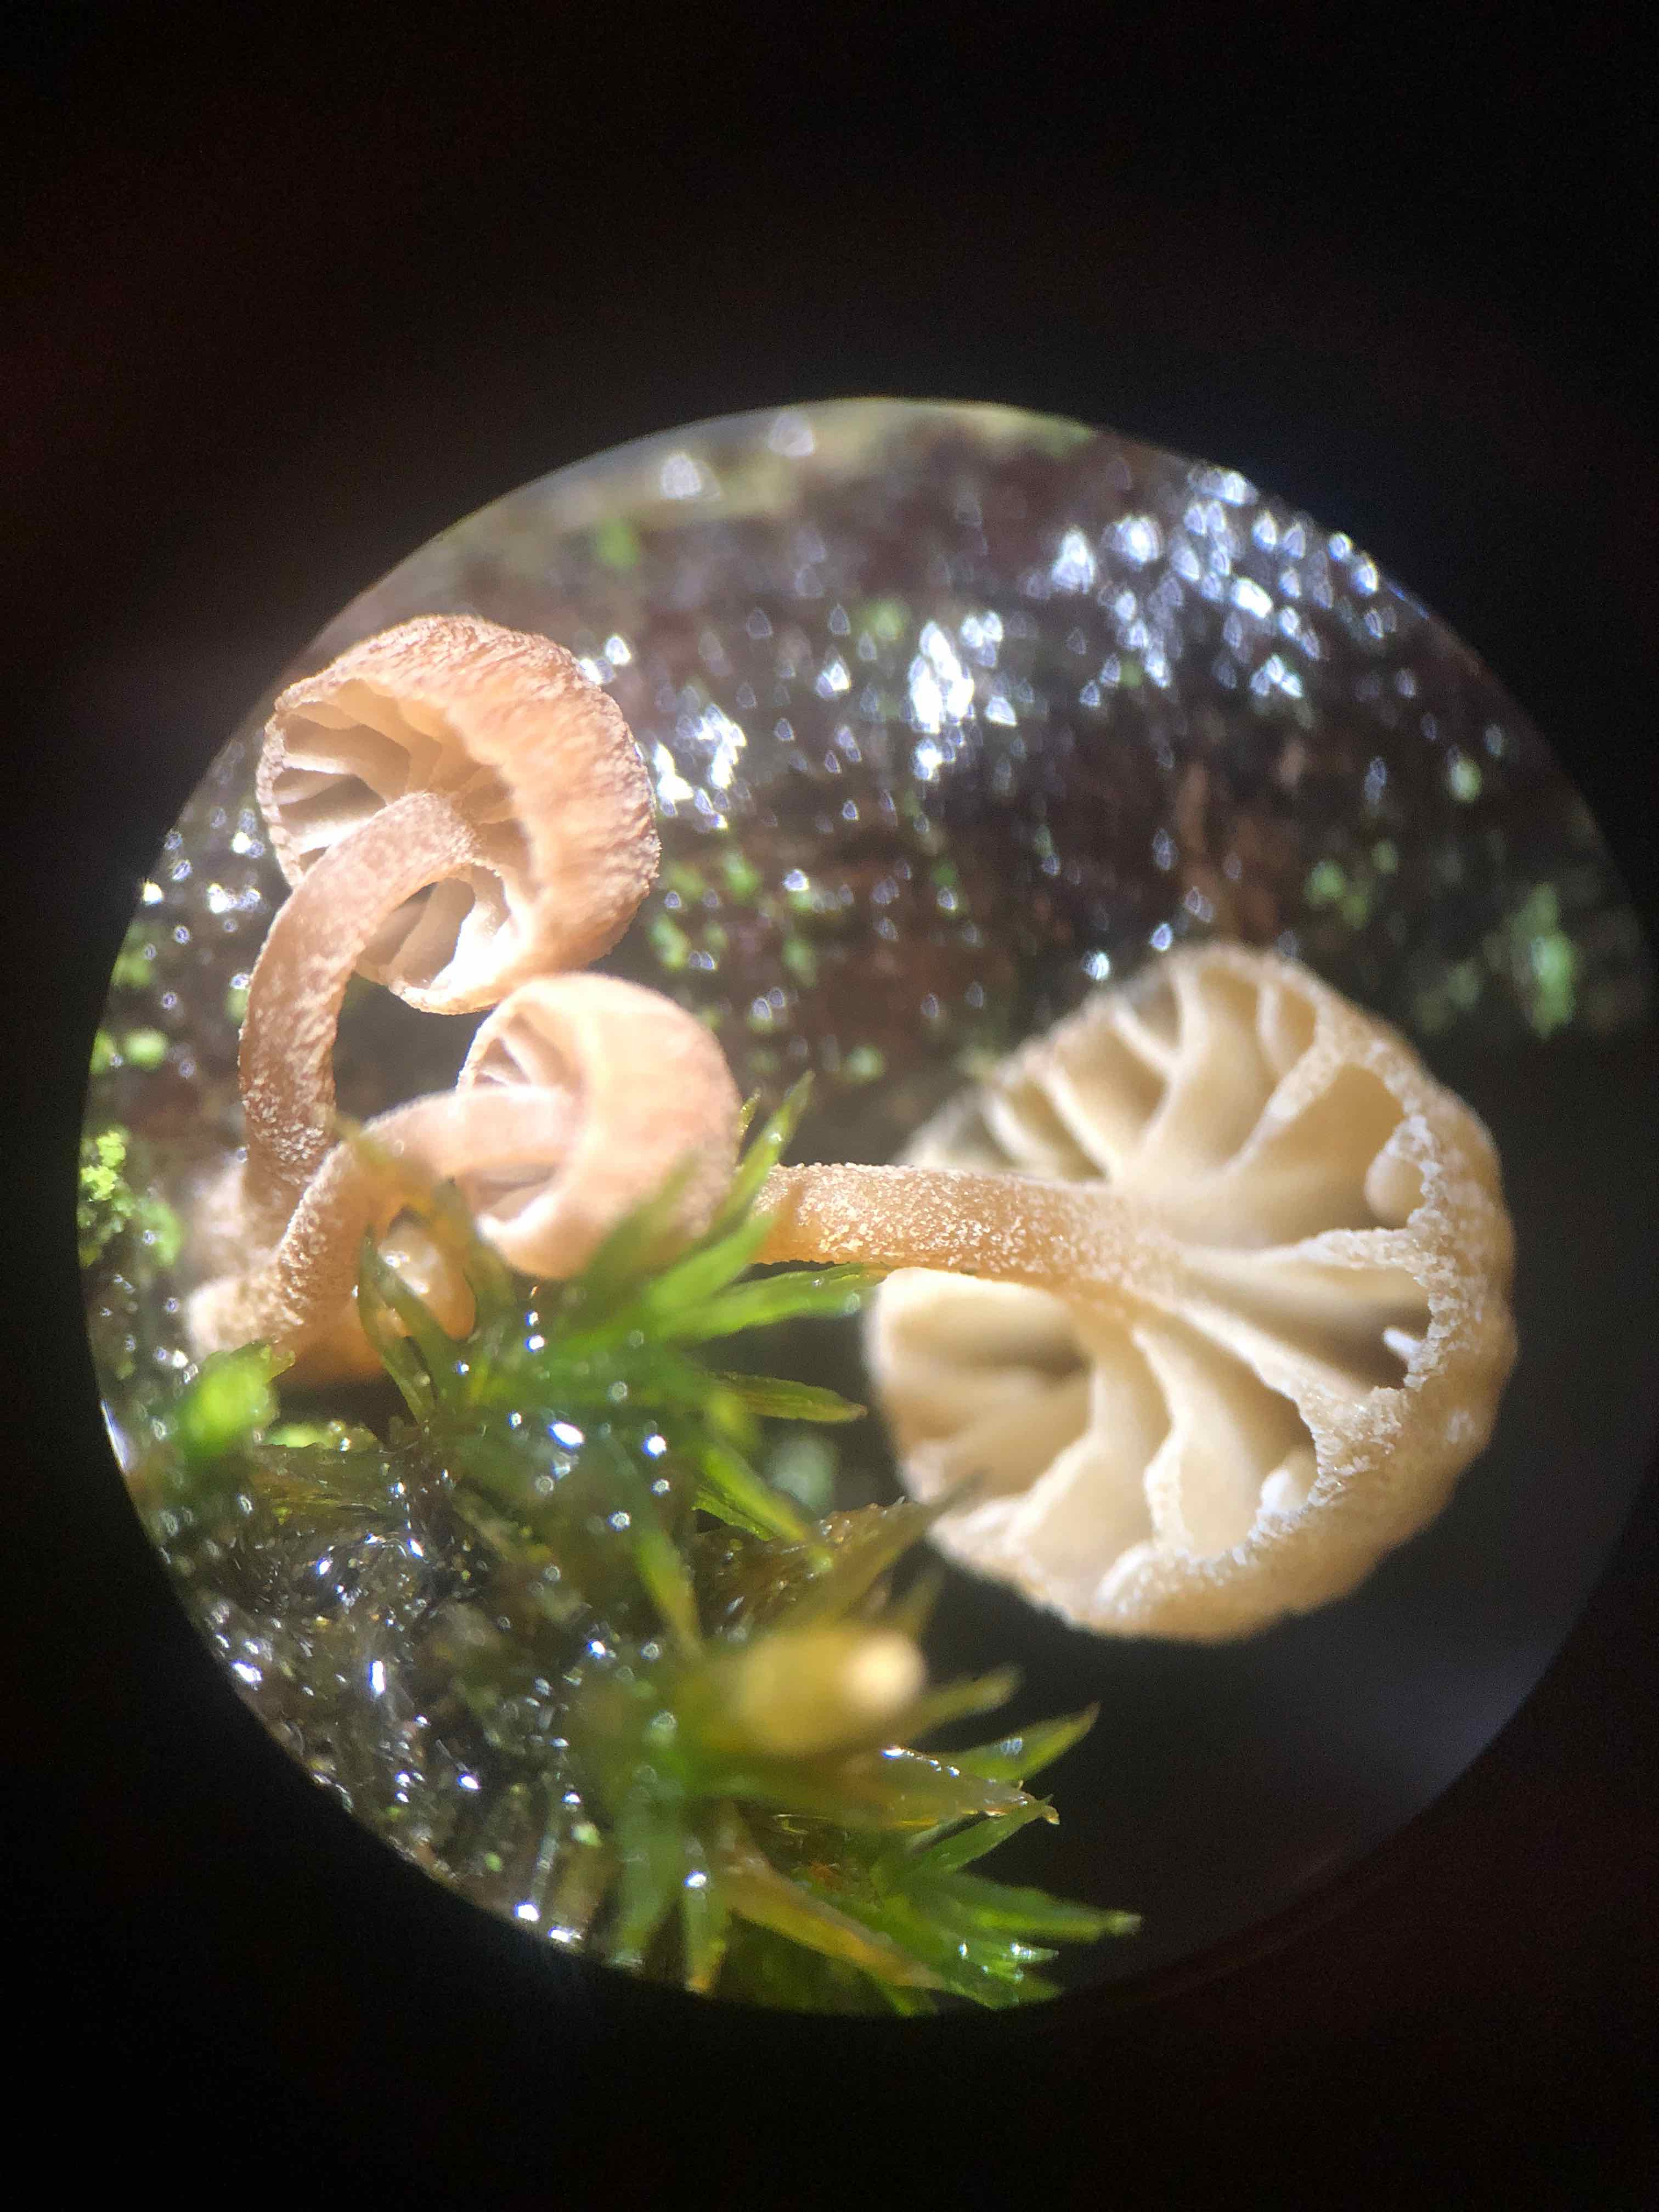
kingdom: Fungi
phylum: Basidiomycota
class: Agaricomycetes
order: Agaricales
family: Mycenaceae
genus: Mycena
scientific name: Mycena juniperina
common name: ene-Huesvamp
